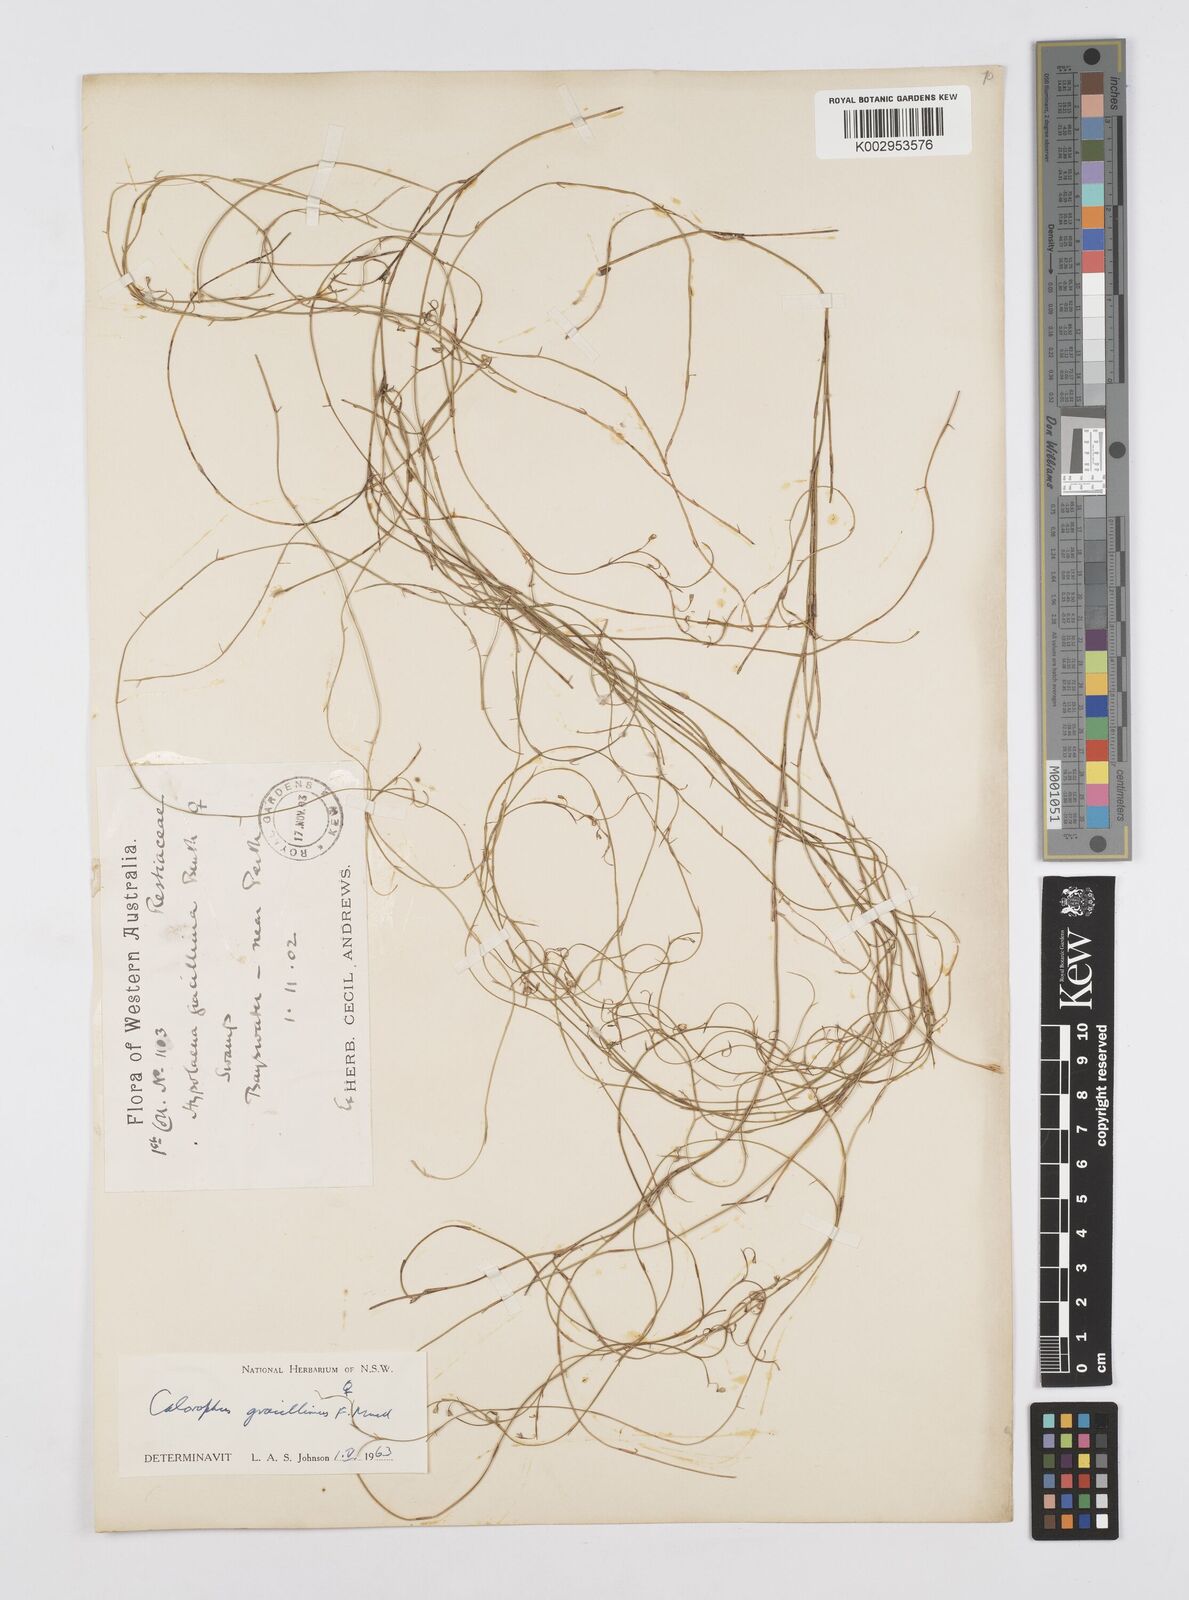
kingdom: Plantae
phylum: Tracheophyta
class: Liliopsida
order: Poales
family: Restionaceae
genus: Empodisma
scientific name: Empodisma gracillimum
